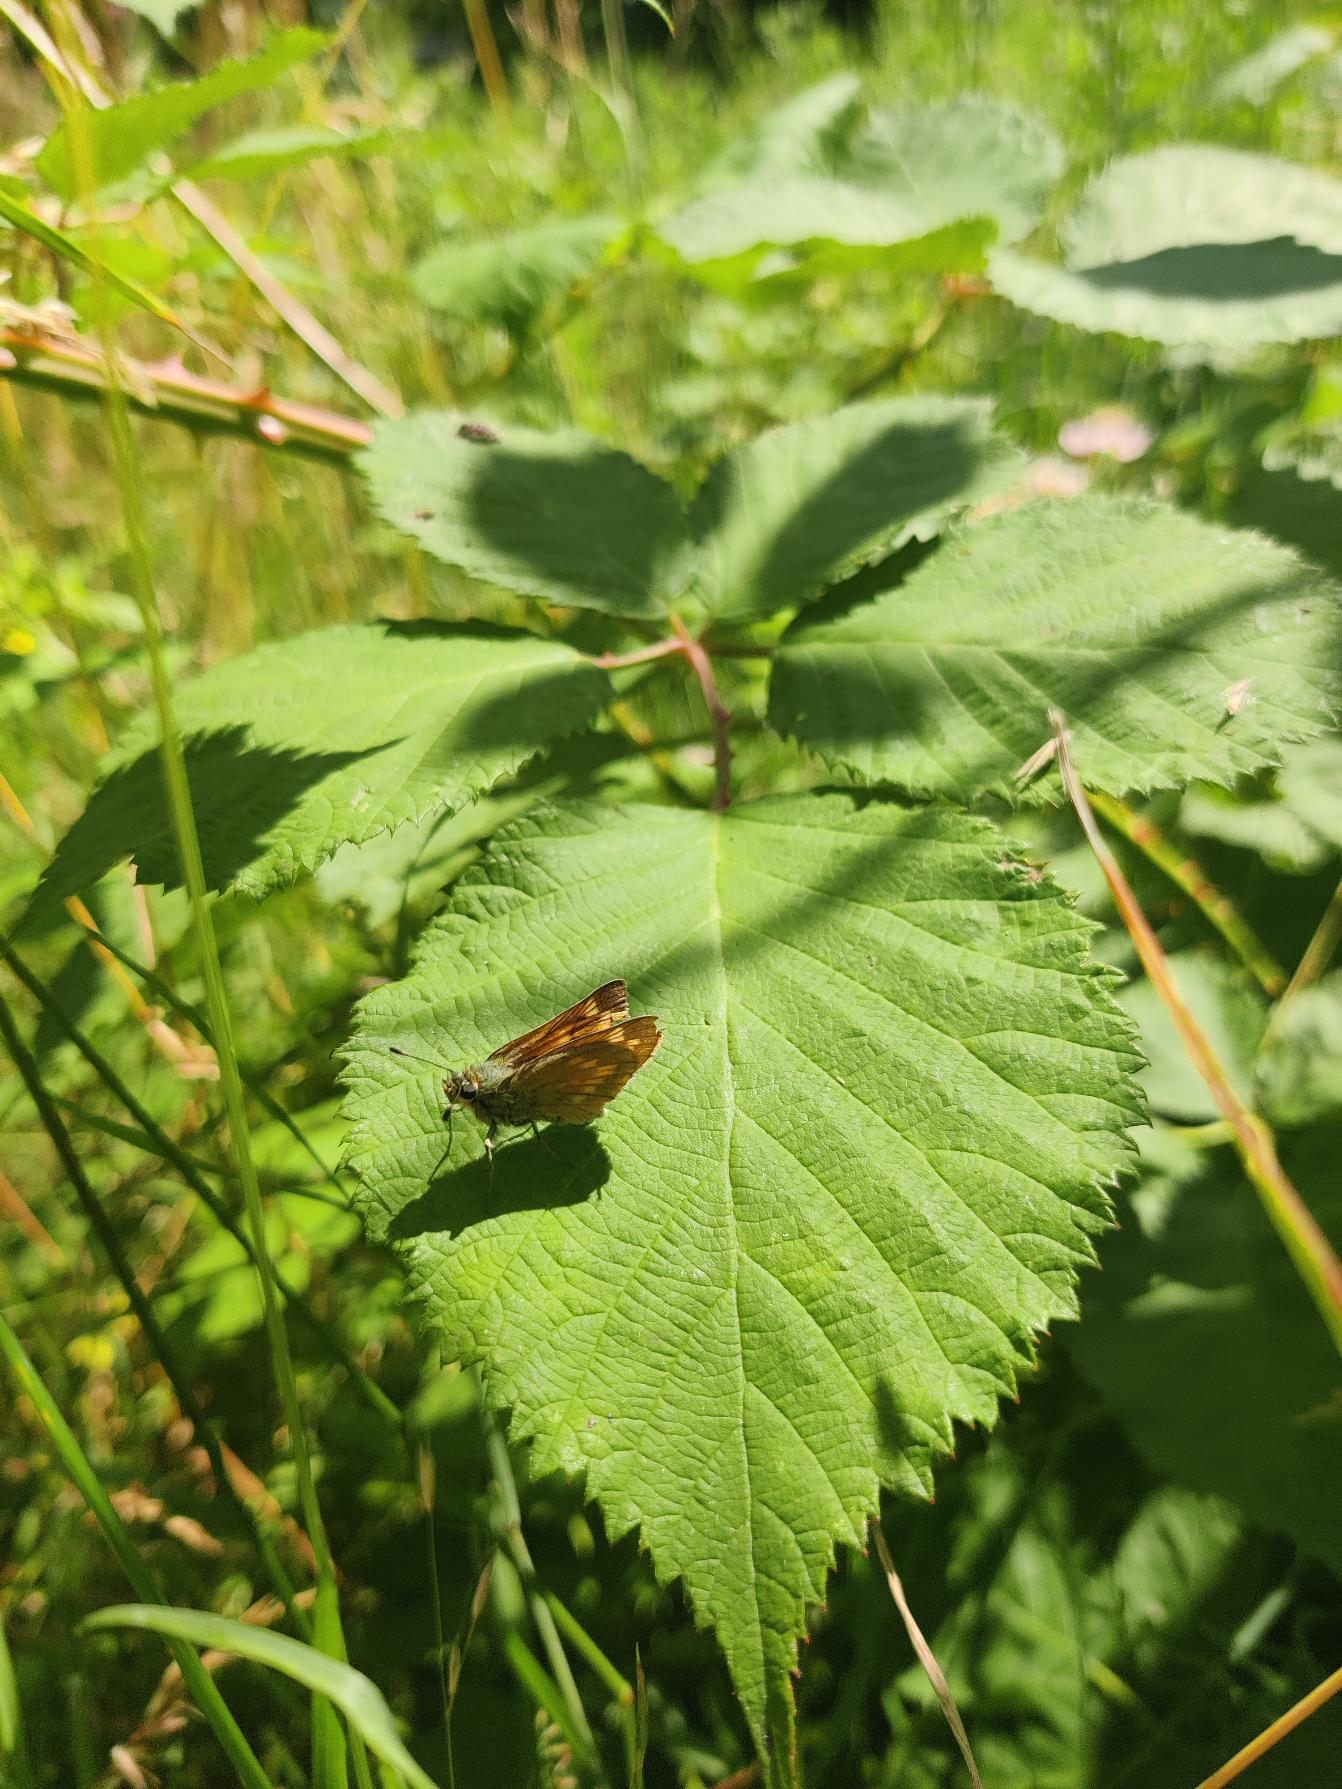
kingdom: Animalia
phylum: Arthropoda
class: Insecta
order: Lepidoptera
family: Hesperiidae
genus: Ochlodes
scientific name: Ochlodes venata
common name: Stor bredpande
